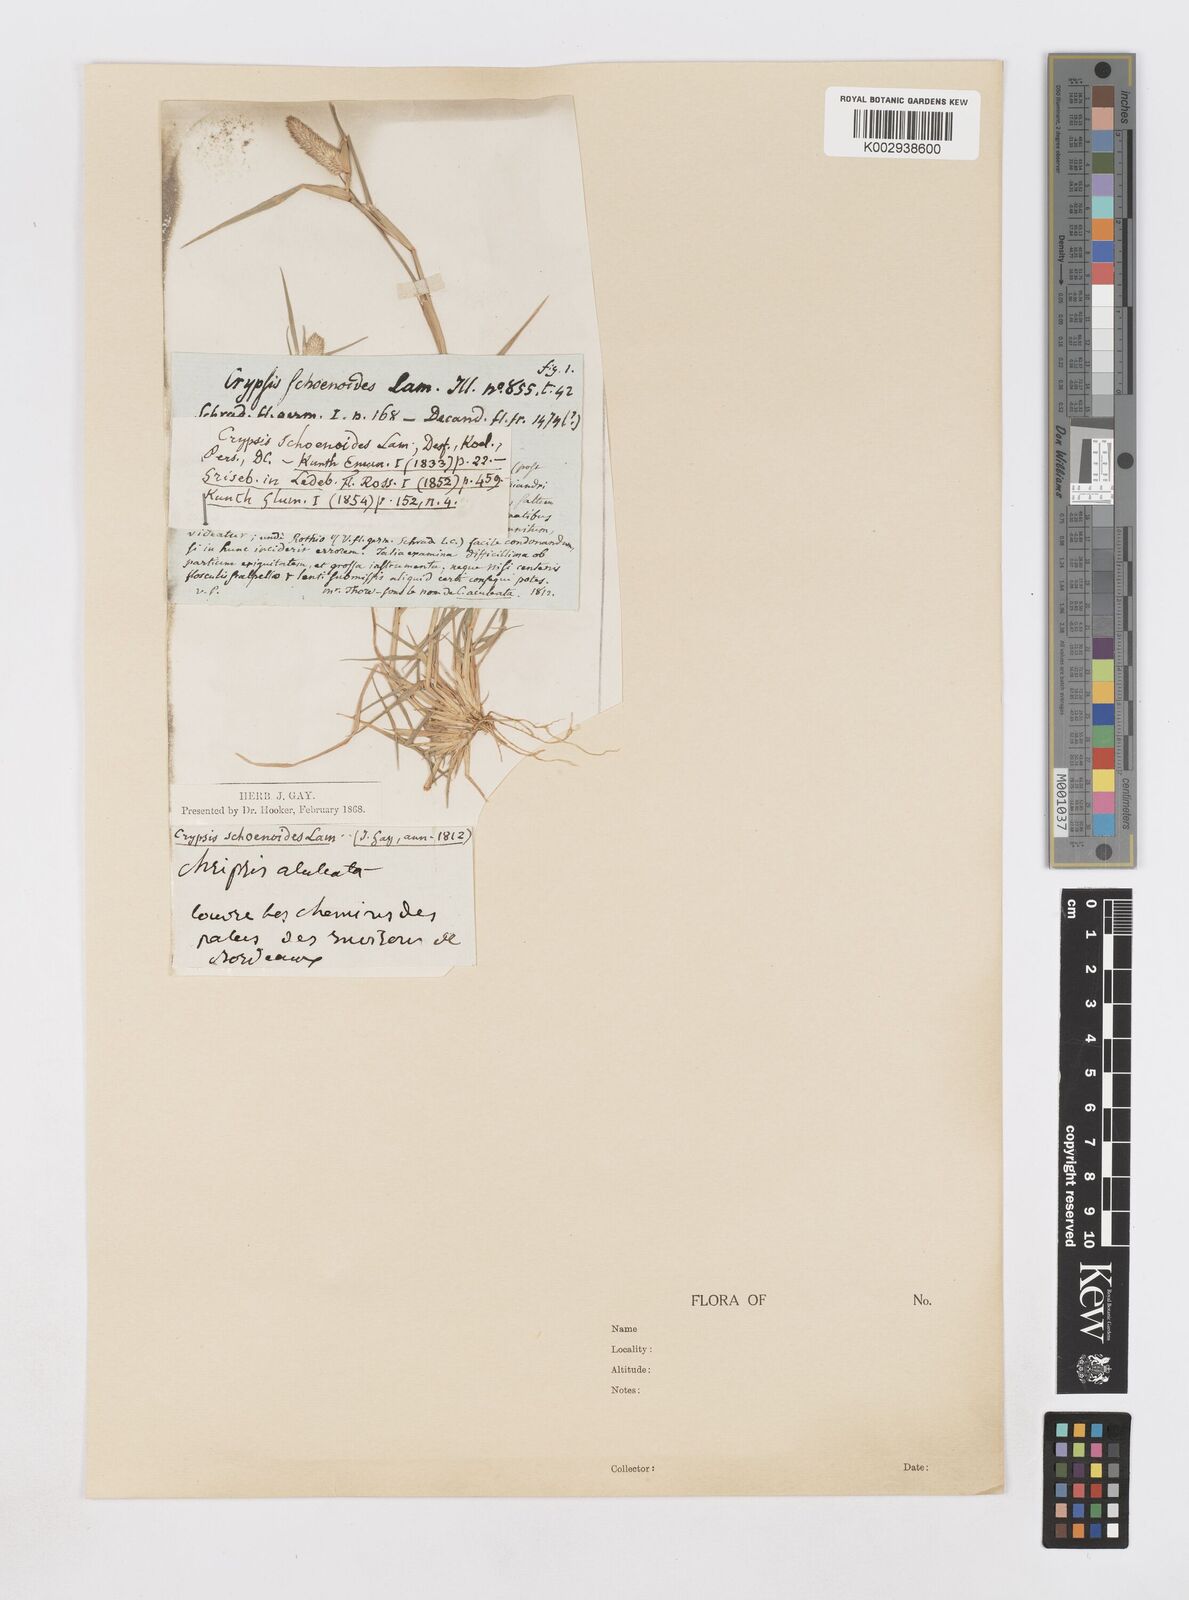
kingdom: Plantae
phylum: Tracheophyta
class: Liliopsida
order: Poales
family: Poaceae
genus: Sporobolus
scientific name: Sporobolus schoenoides
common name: Rush-like timothy
